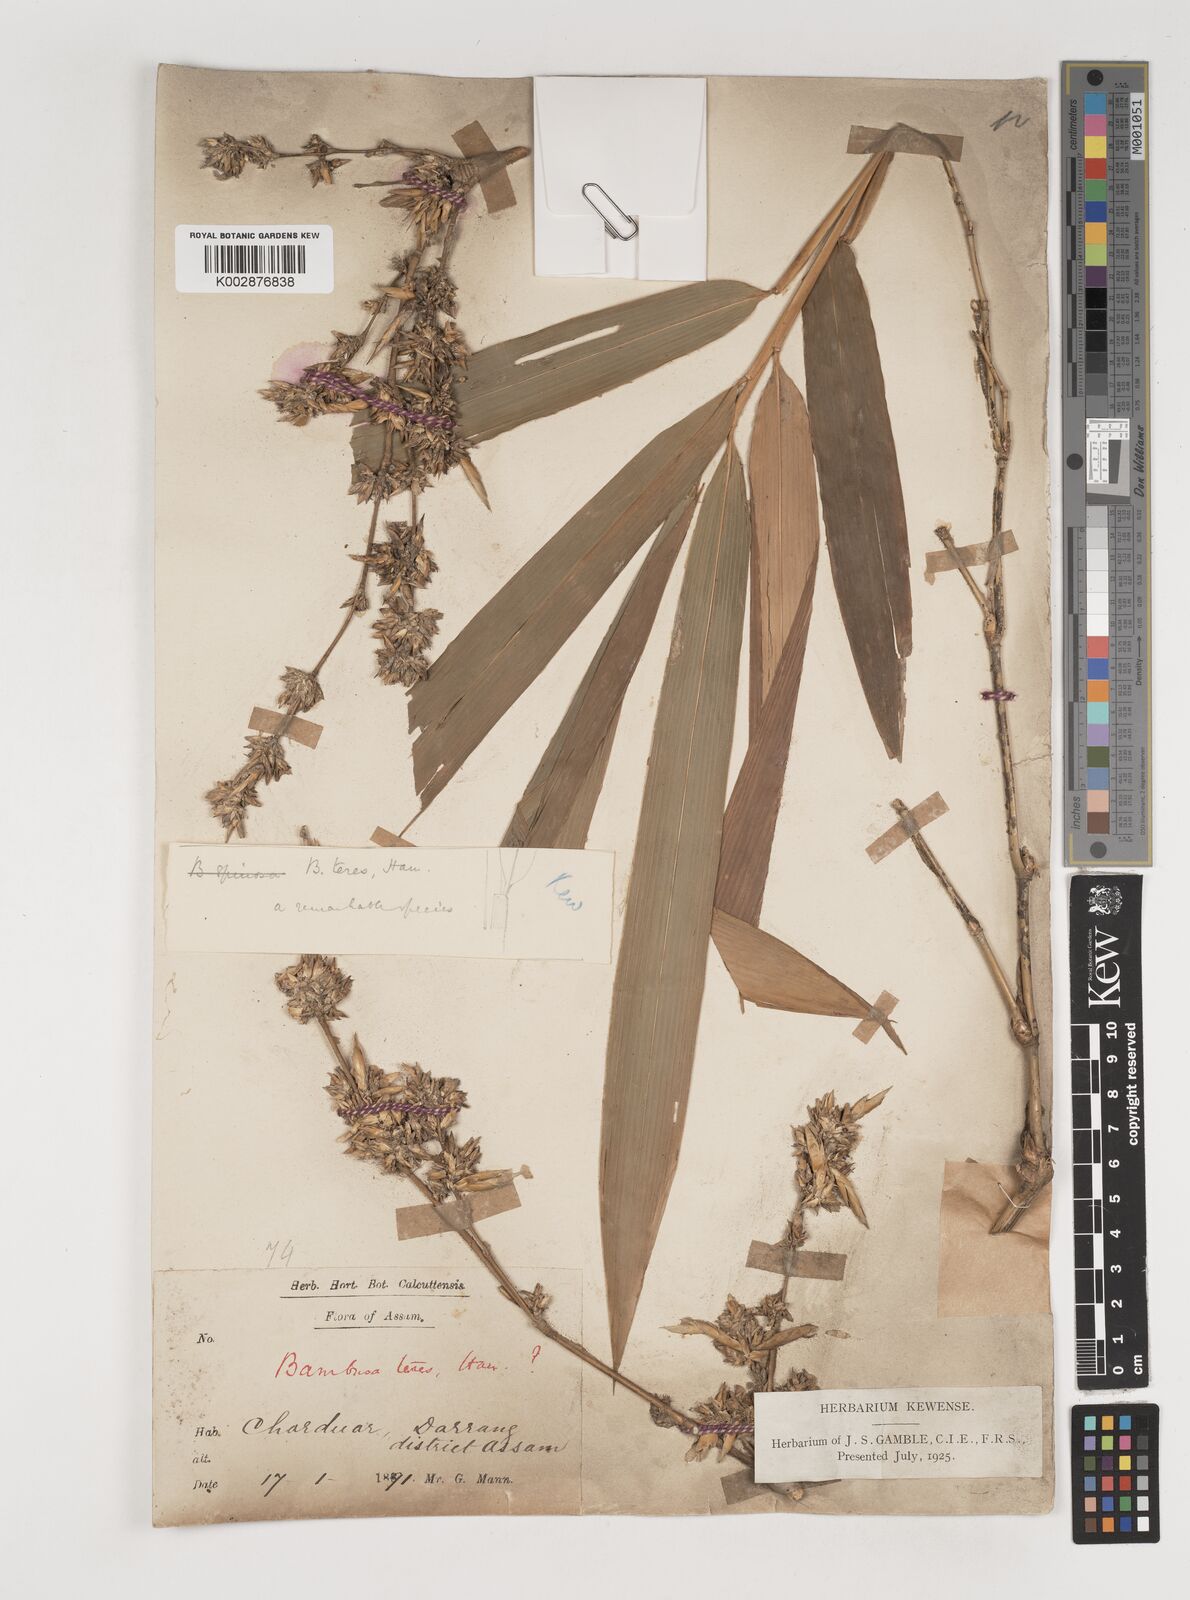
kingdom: Plantae
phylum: Tracheophyta
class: Liliopsida
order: Poales
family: Poaceae
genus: Bambusa
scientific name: Bambusa teres
